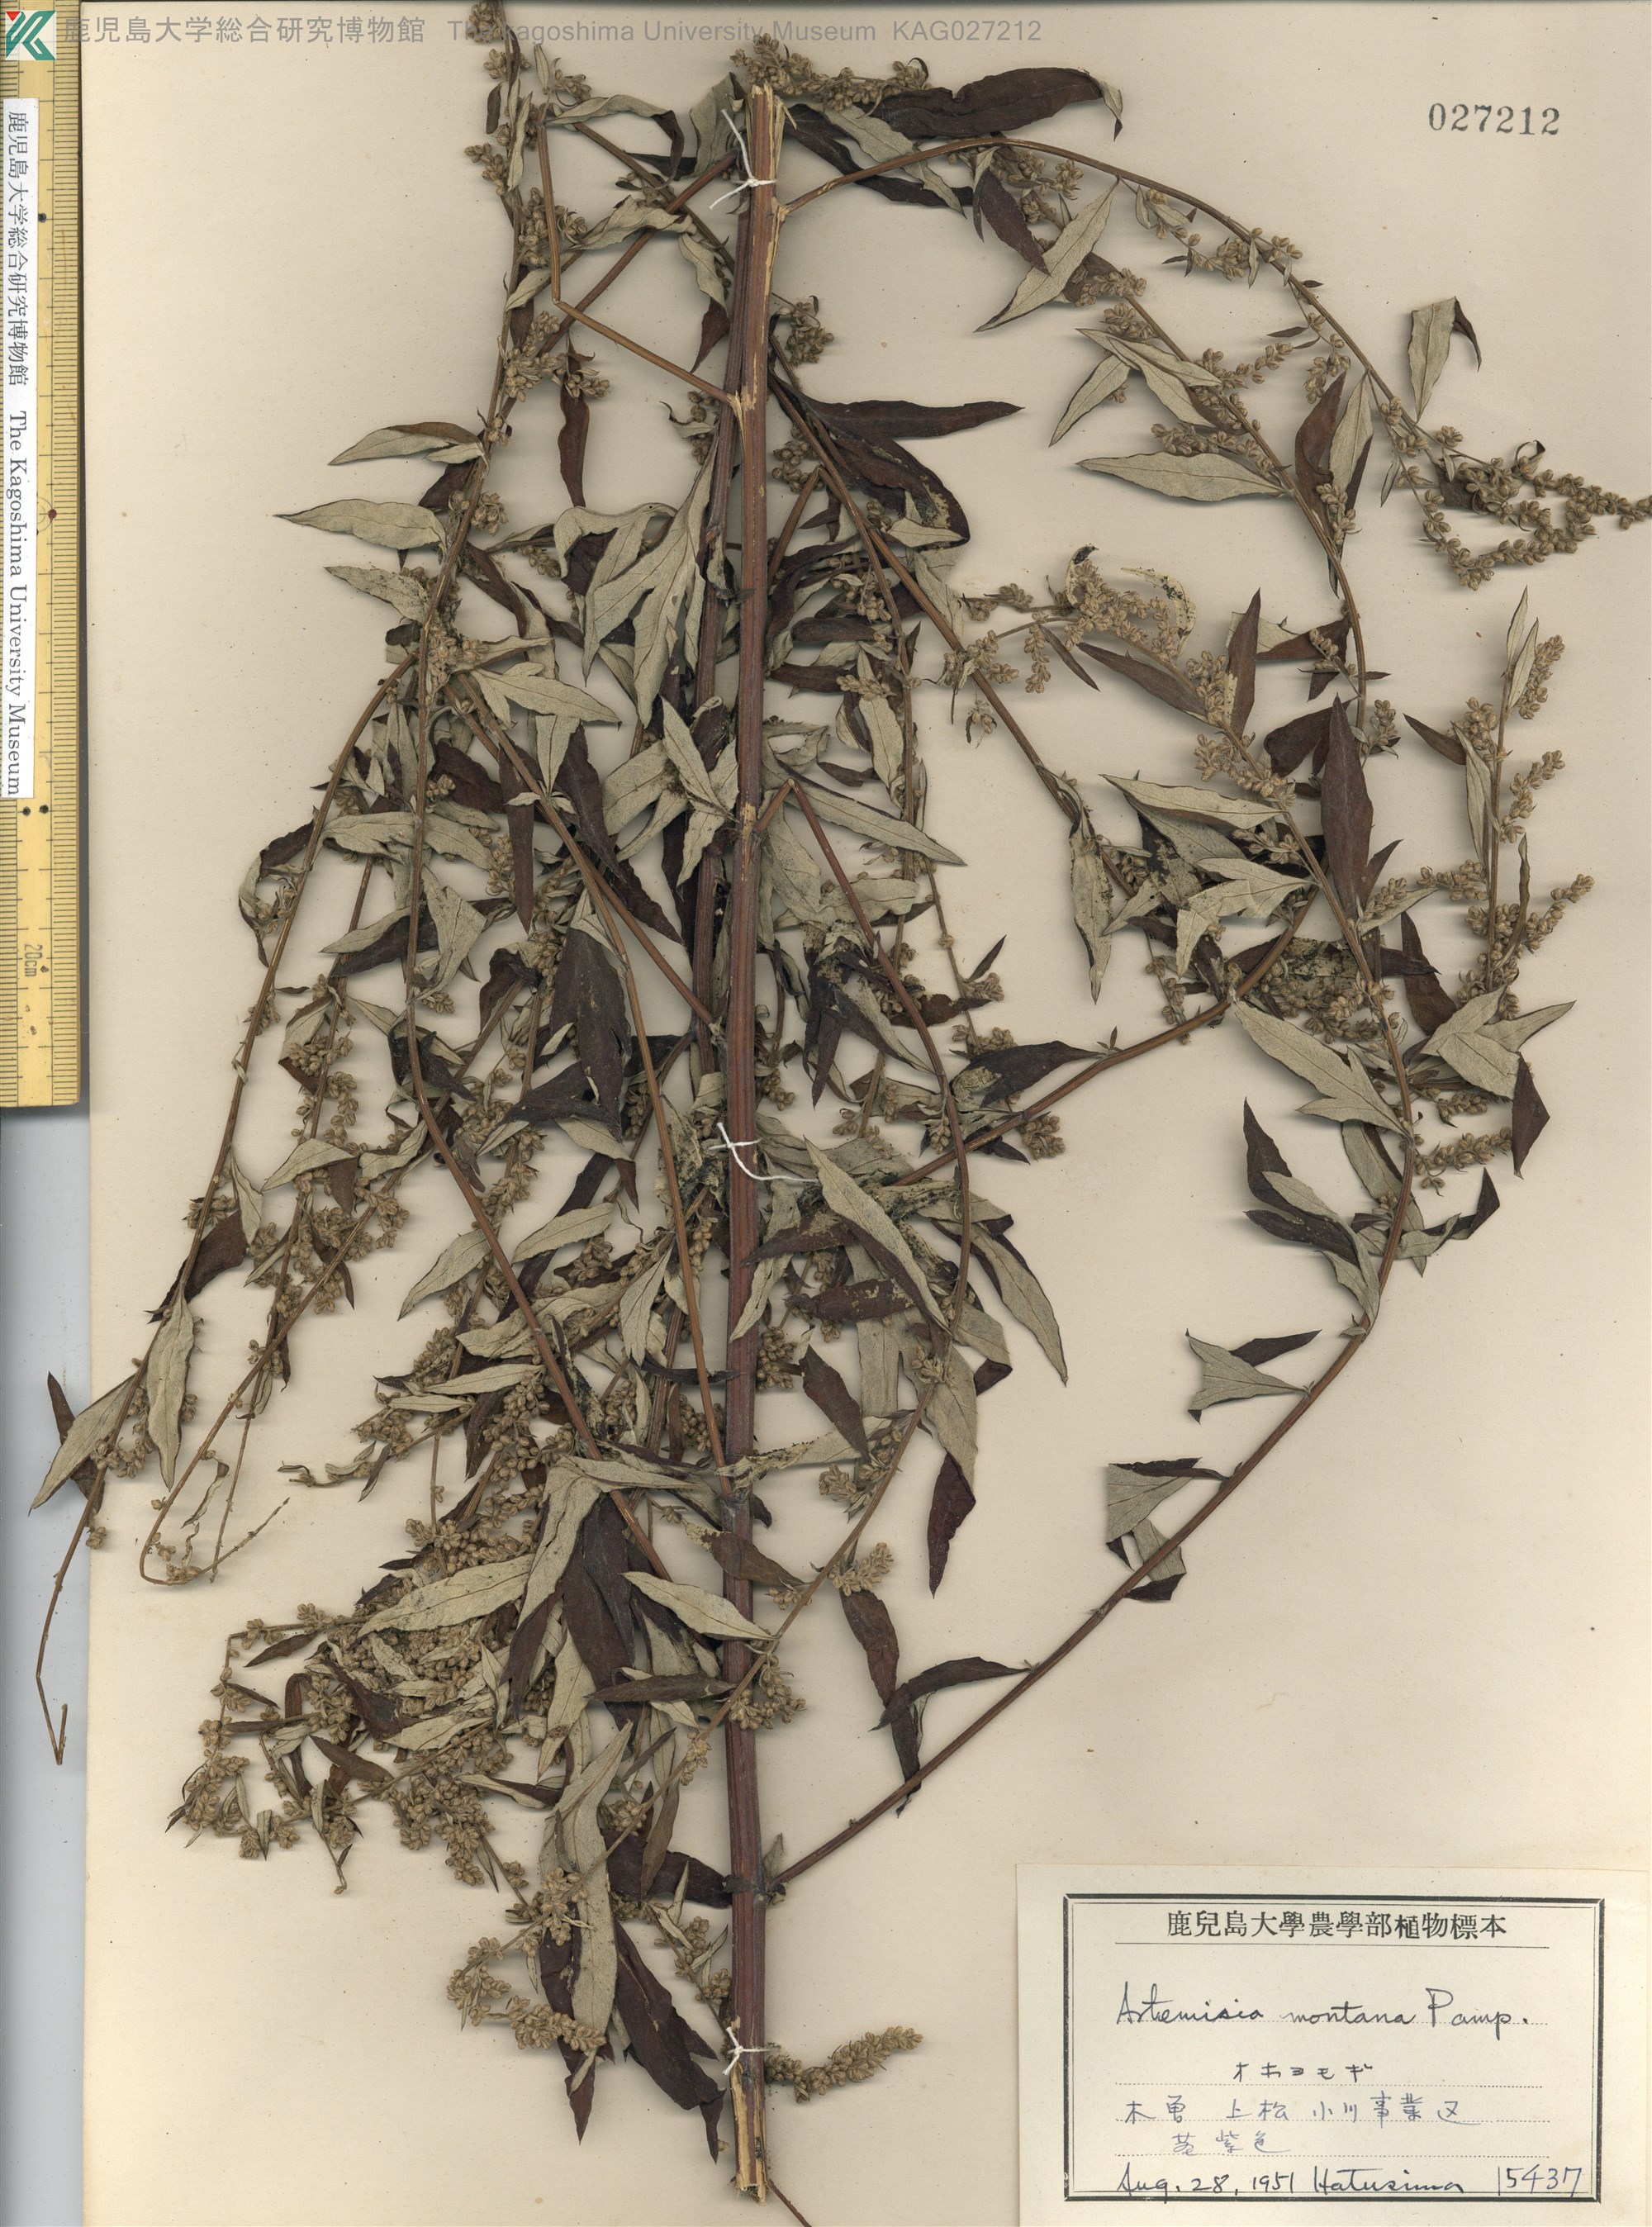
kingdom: Plantae
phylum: Tracheophyta
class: Magnoliopsida
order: Asterales
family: Asteraceae
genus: Artemisia
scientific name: Artemisia montana
